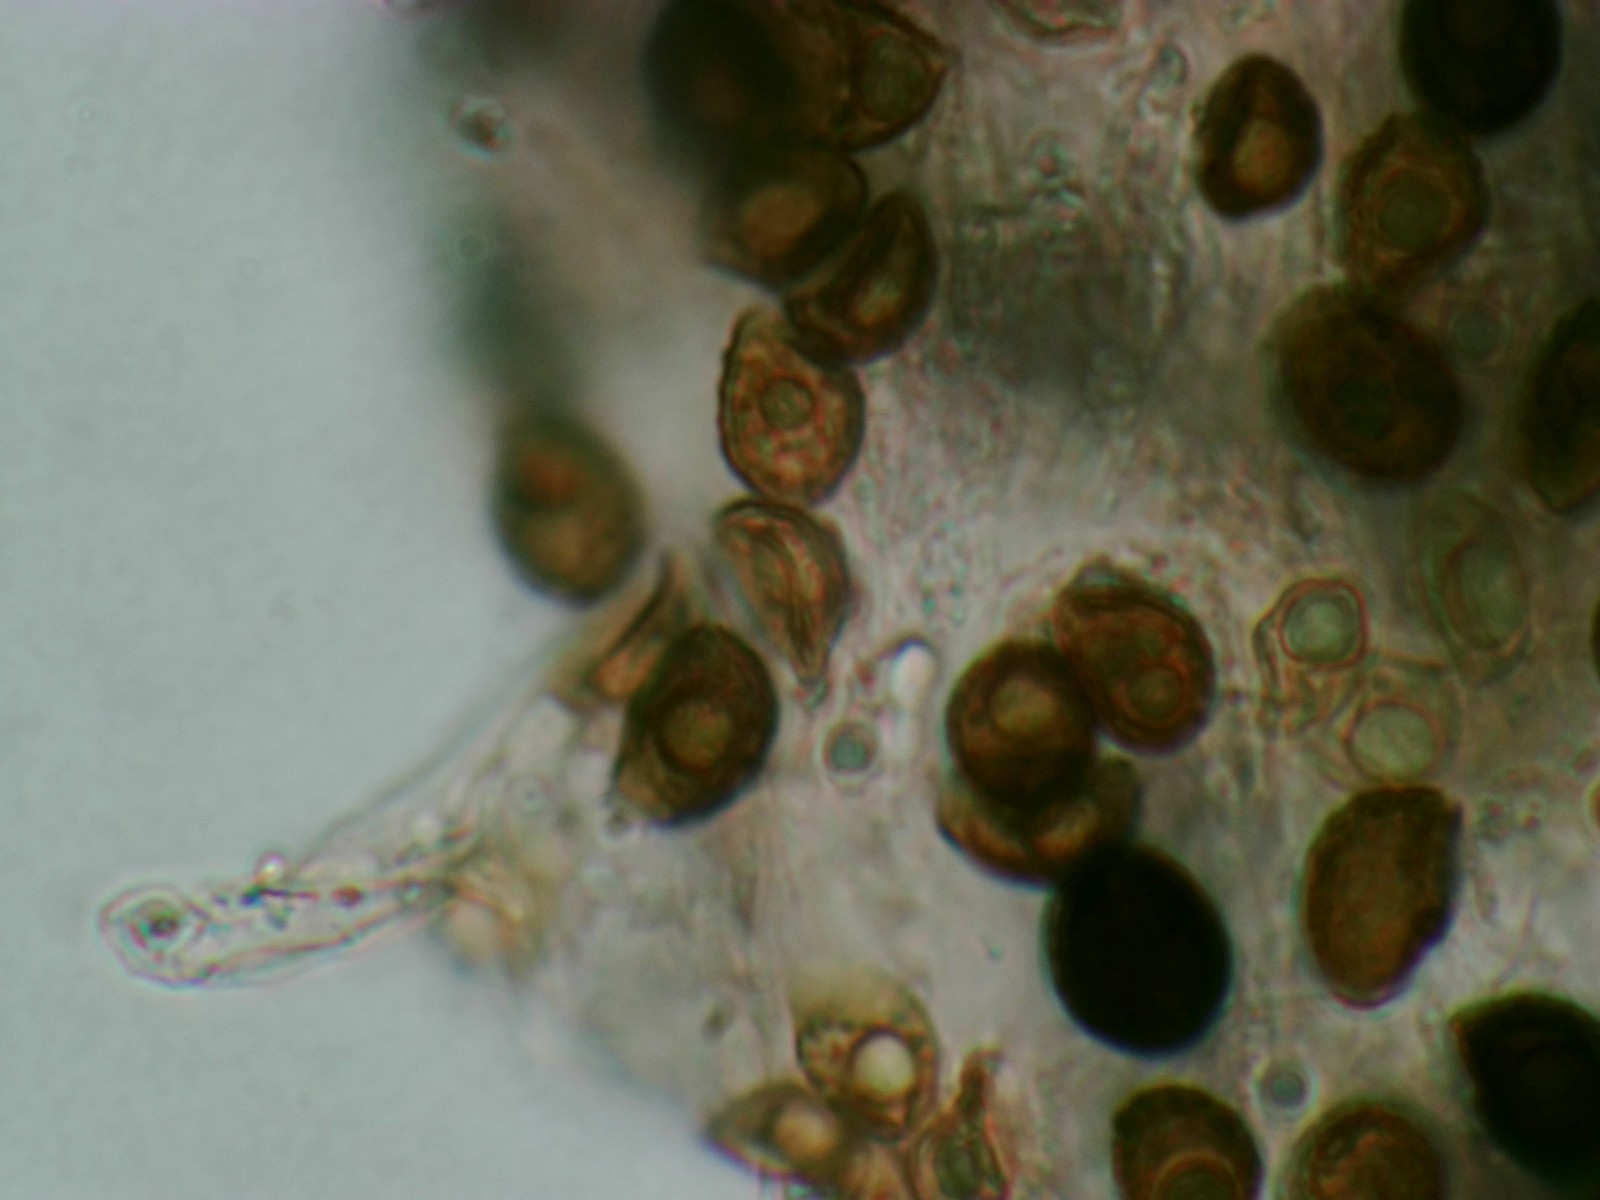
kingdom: Fungi
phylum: Basidiomycota
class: Agaricomycetes
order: Agaricales
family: Psathyrellaceae
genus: Coprinellus
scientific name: Coprinellus deliquescens
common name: rusporet blækhat
